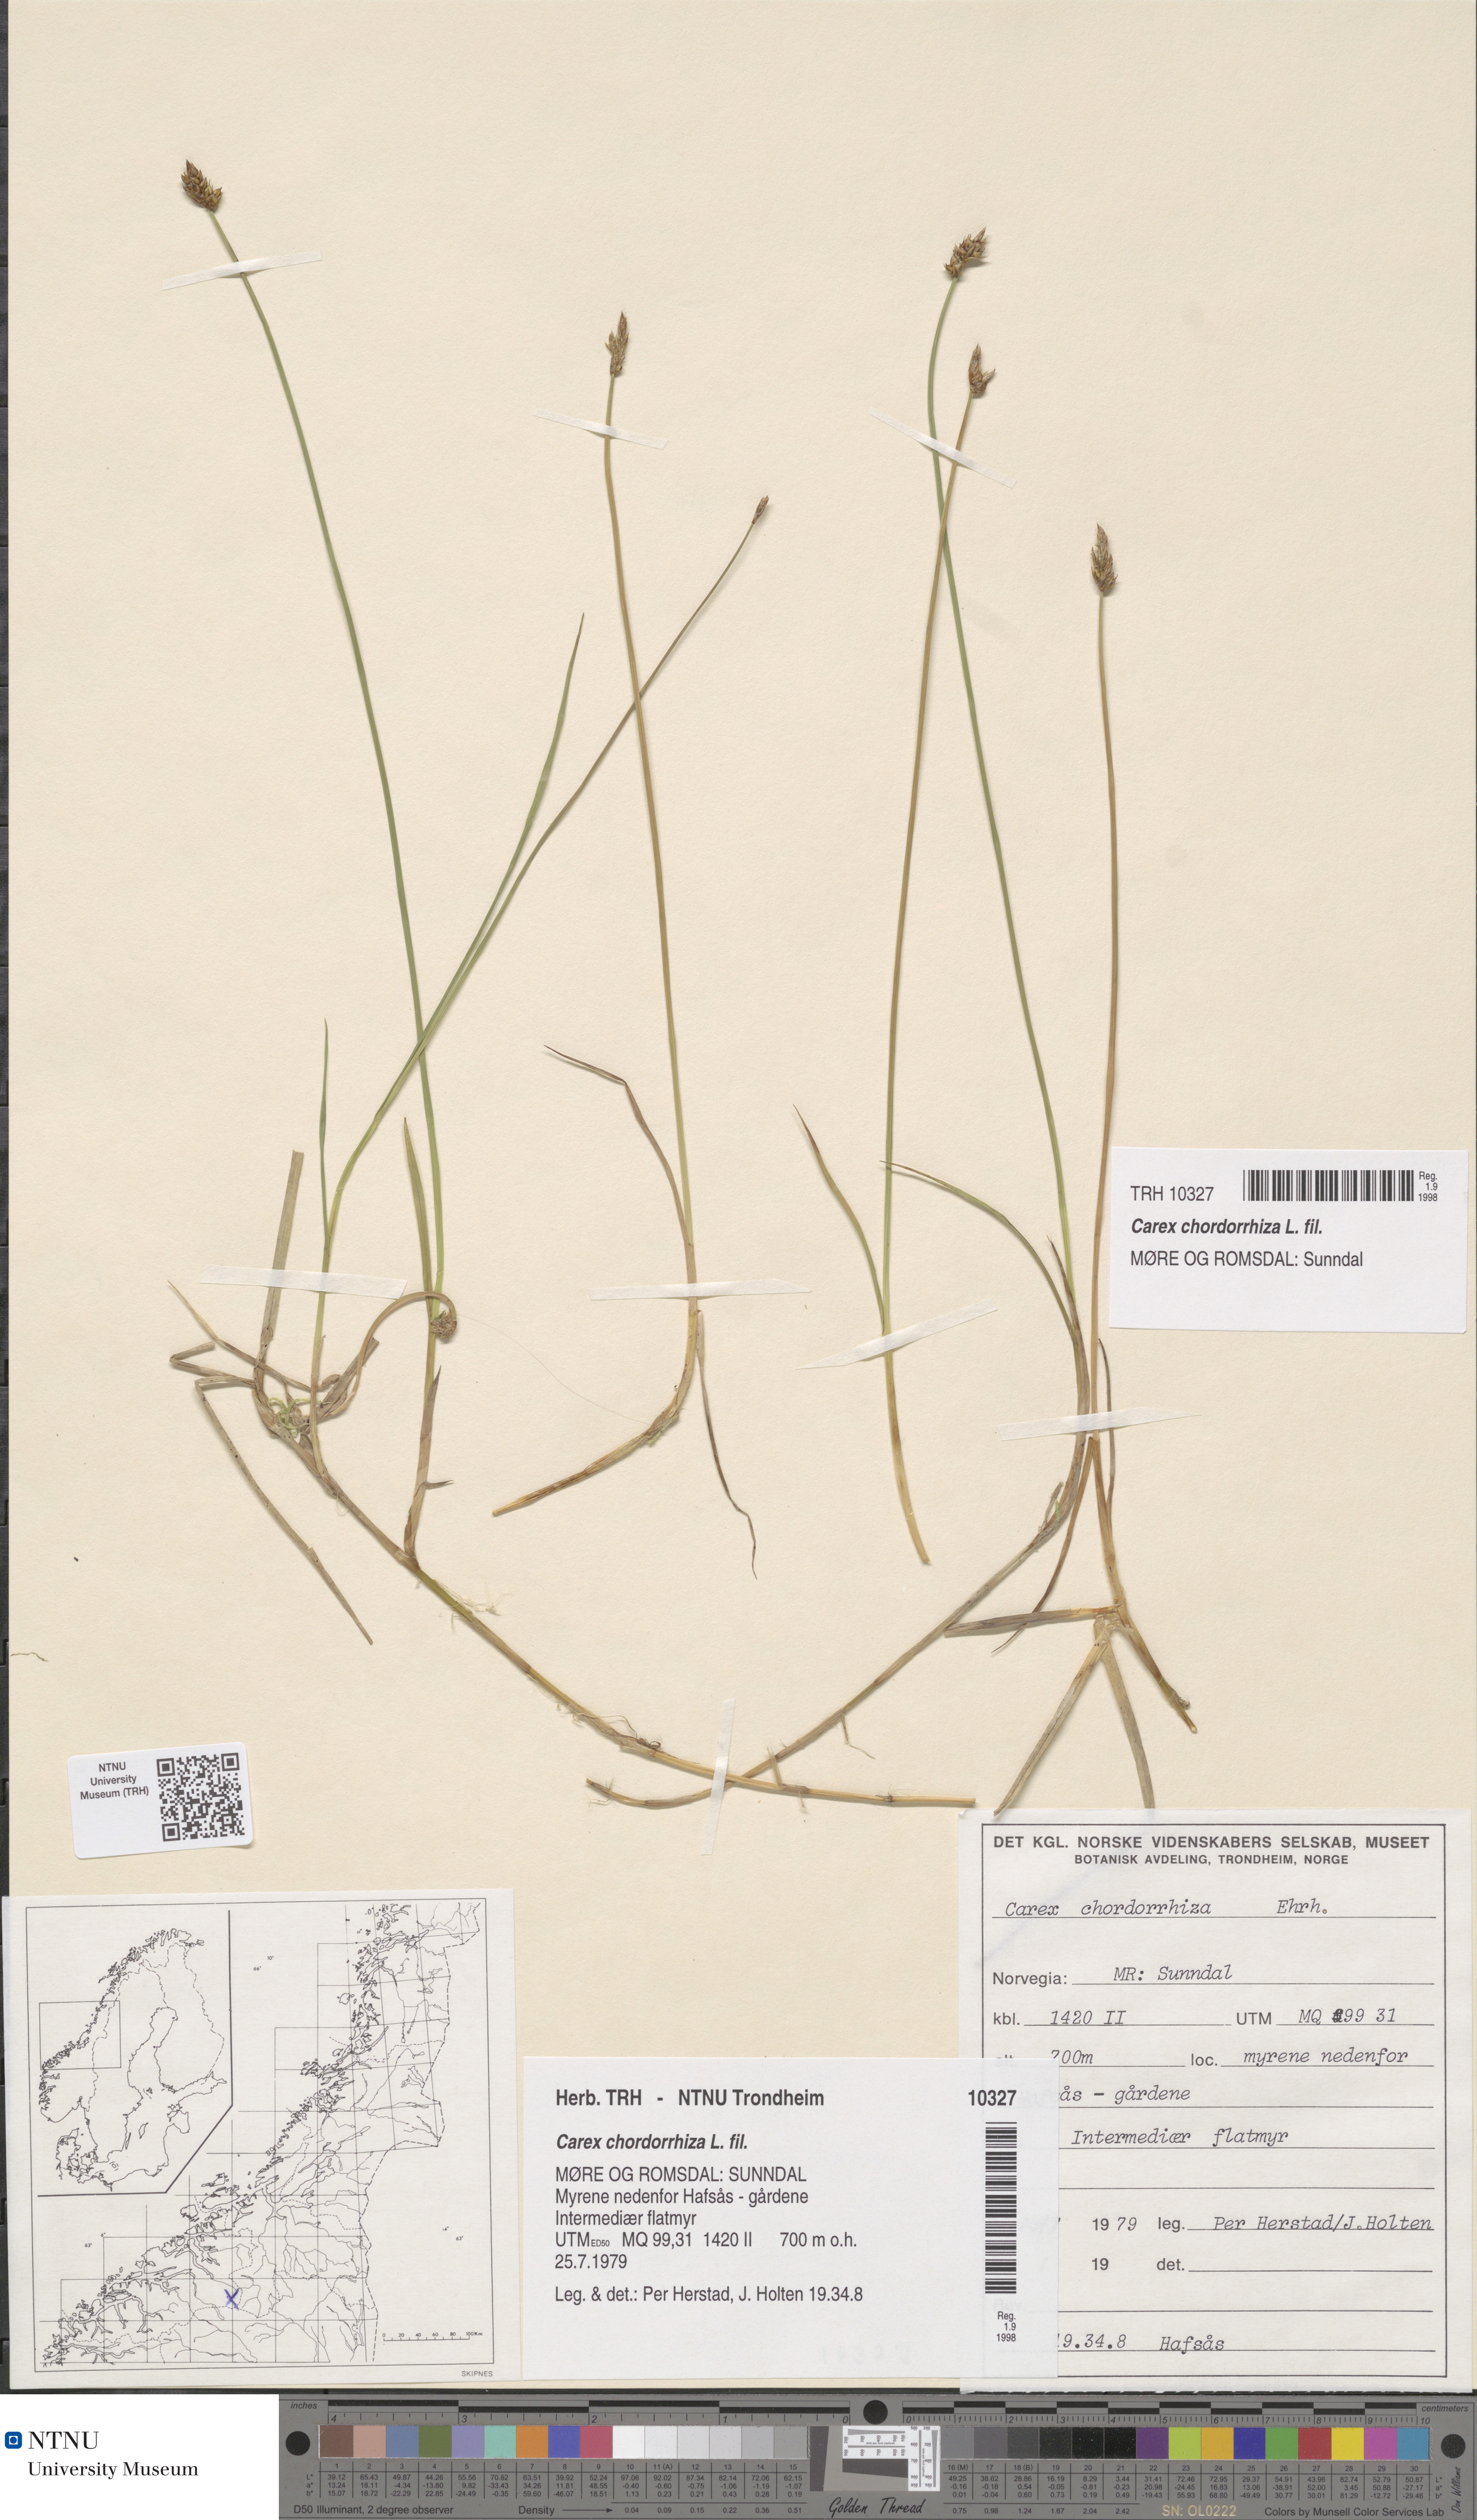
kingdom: Plantae
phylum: Tracheophyta
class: Liliopsida
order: Poales
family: Cyperaceae
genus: Carex
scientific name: Carex chordorrhiza
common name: String sedge
